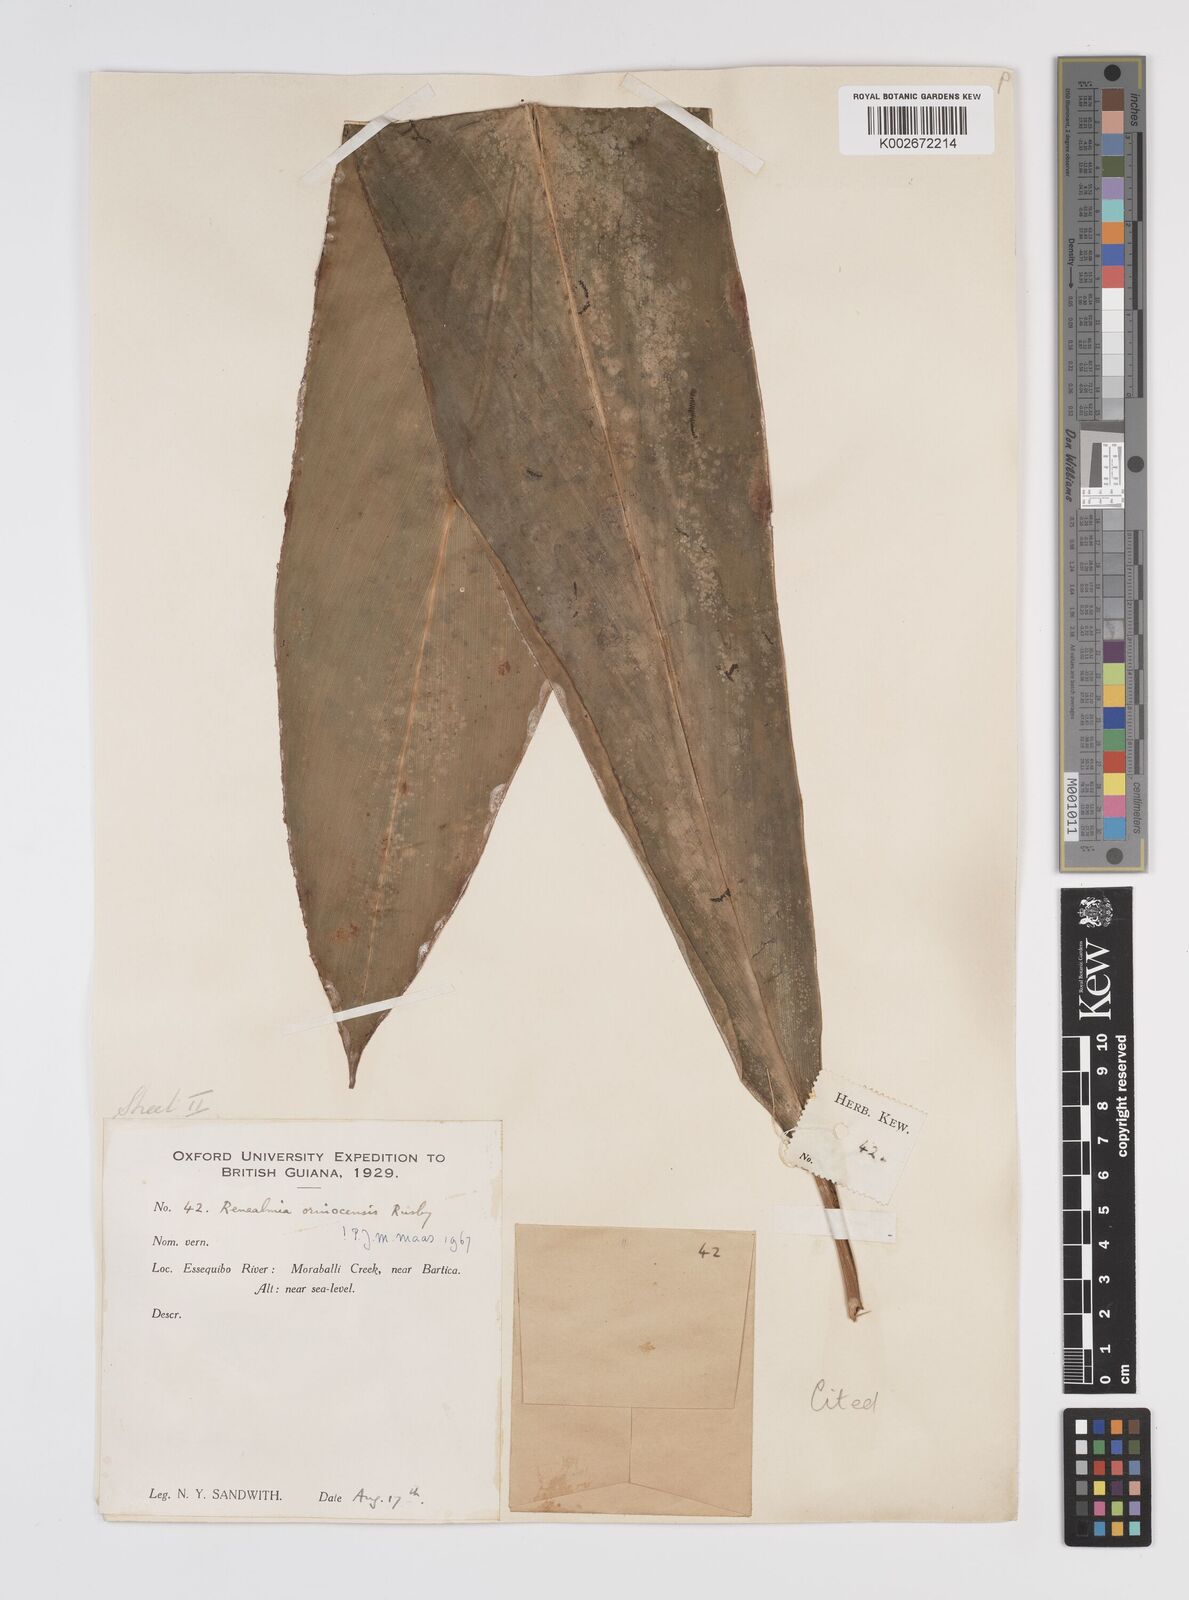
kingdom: Plantae
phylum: Tracheophyta
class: Liliopsida
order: Zingiberales
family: Zingiberaceae
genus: Renealmia
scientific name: Renealmia orinocensis
